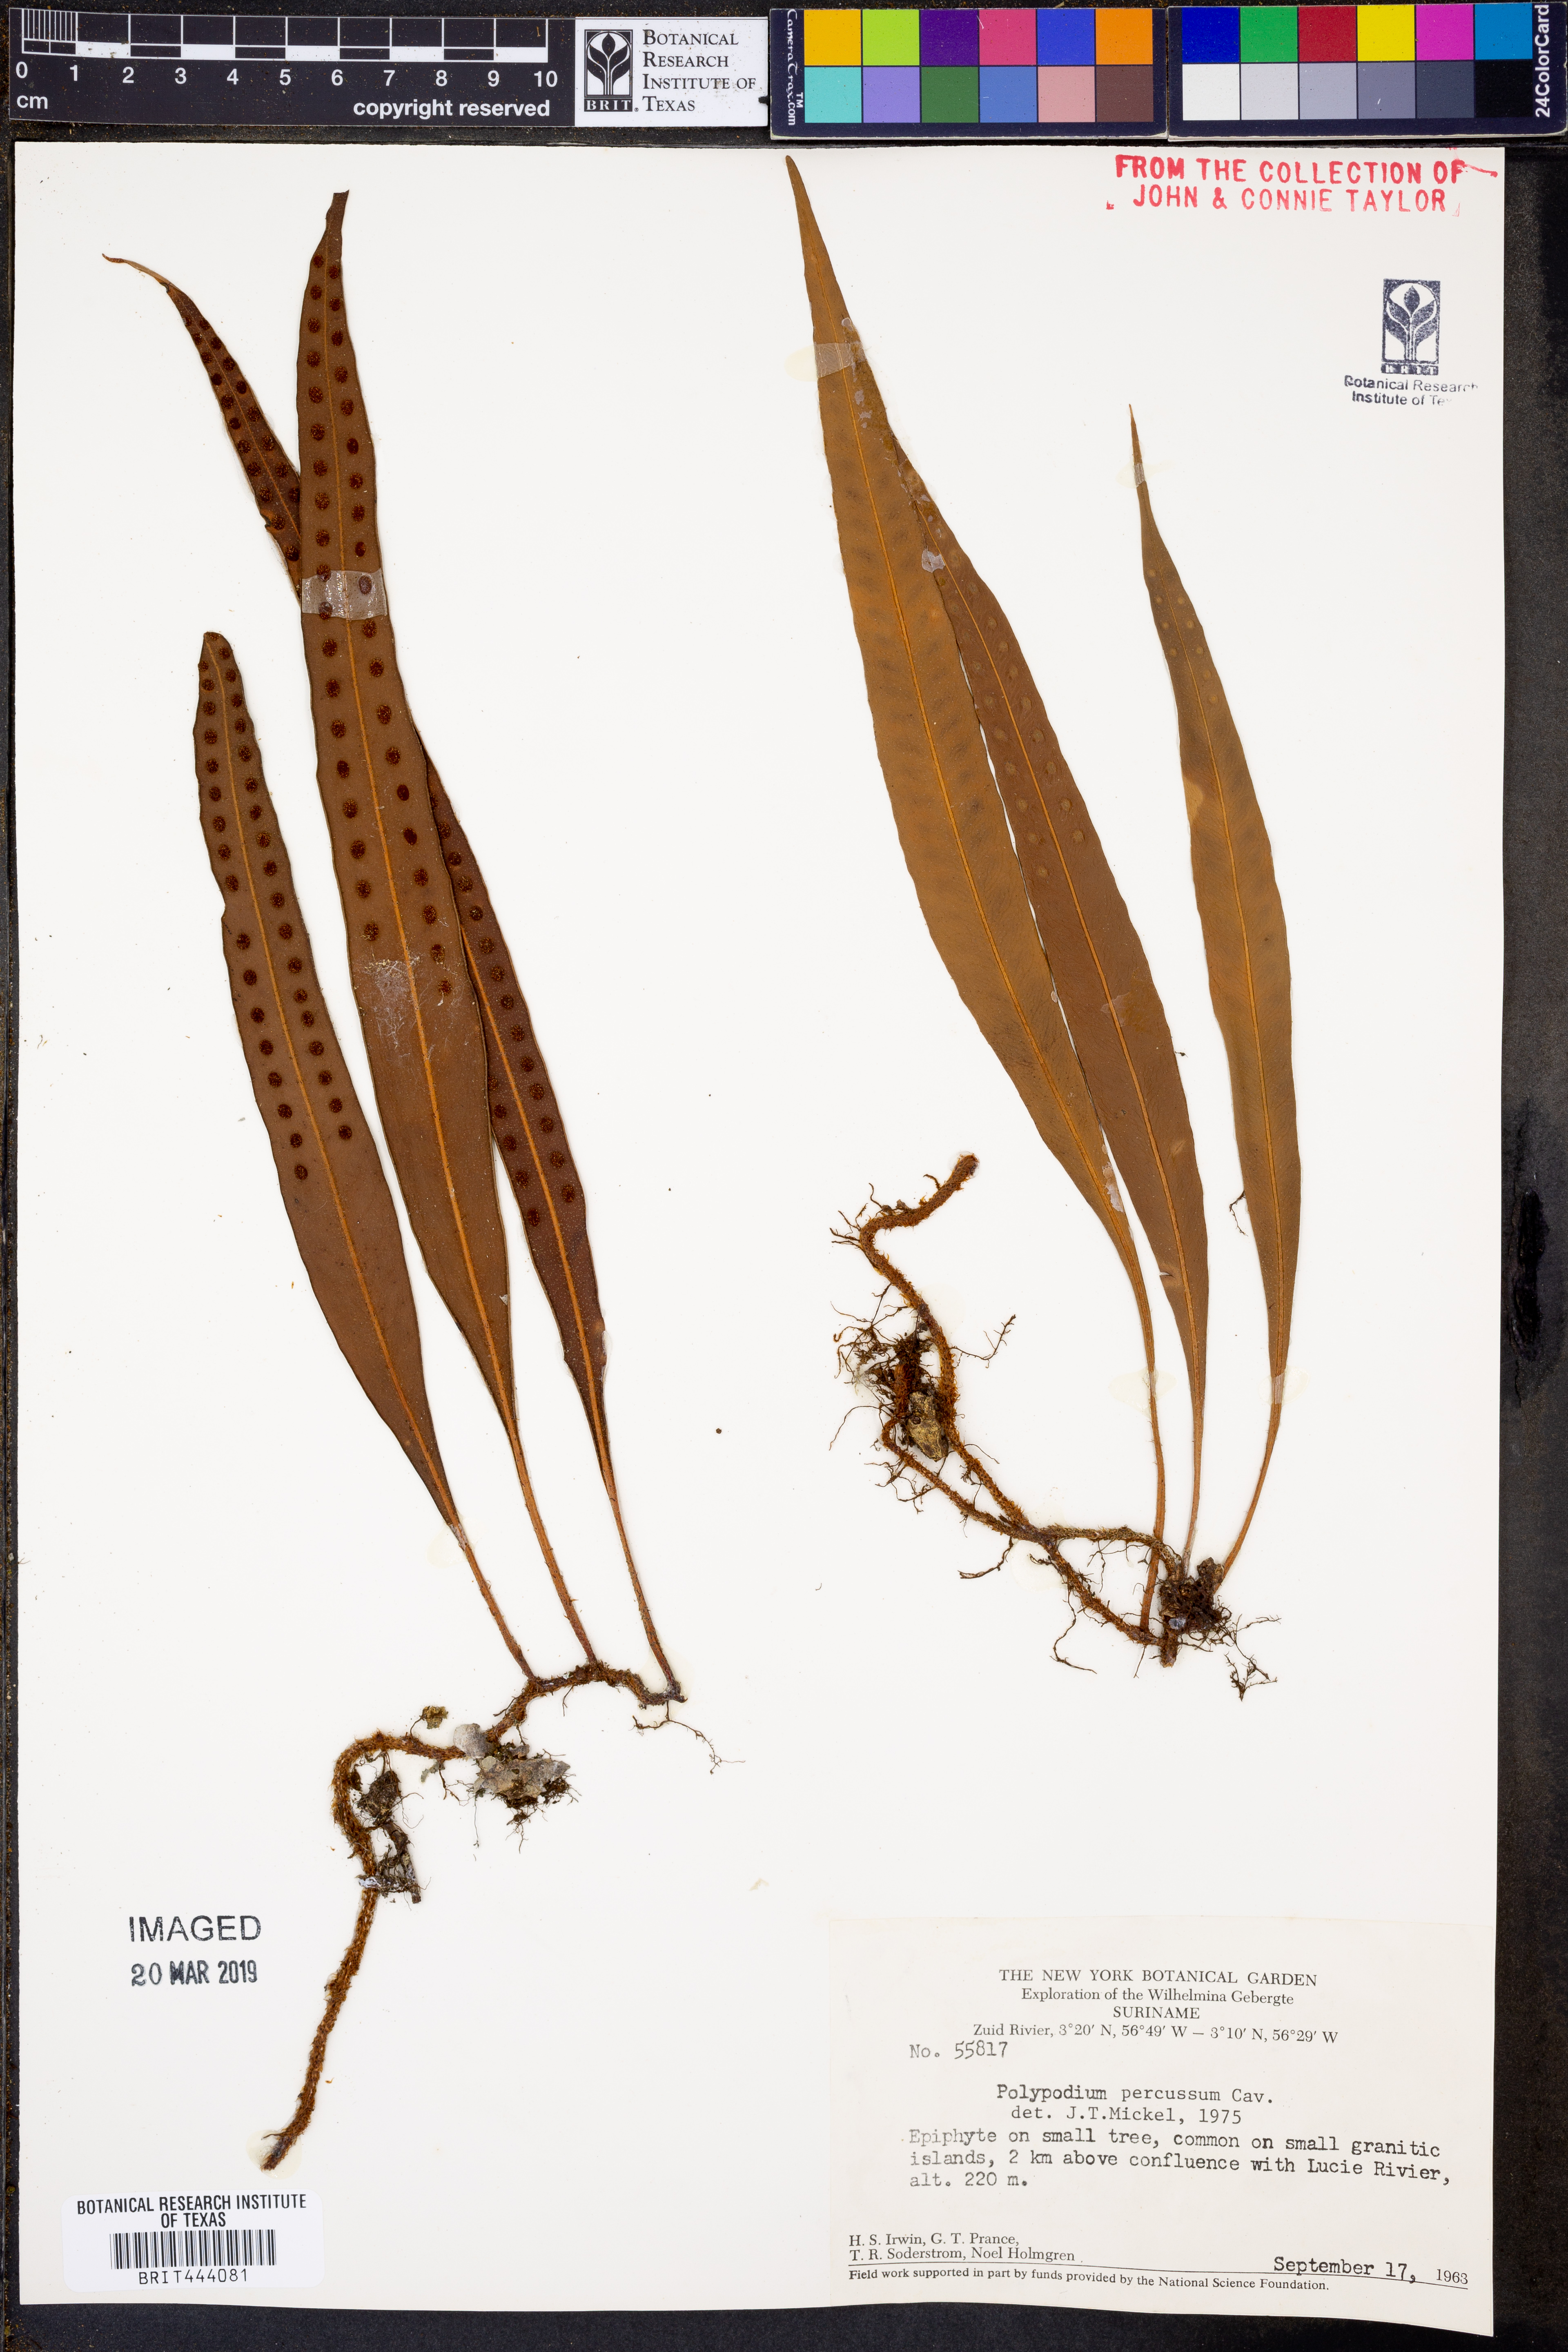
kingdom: Plantae
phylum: Tracheophyta
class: Polypodiopsida
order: Polypodiales
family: Polypodiaceae
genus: Microgramma
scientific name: Microgramma percussa
